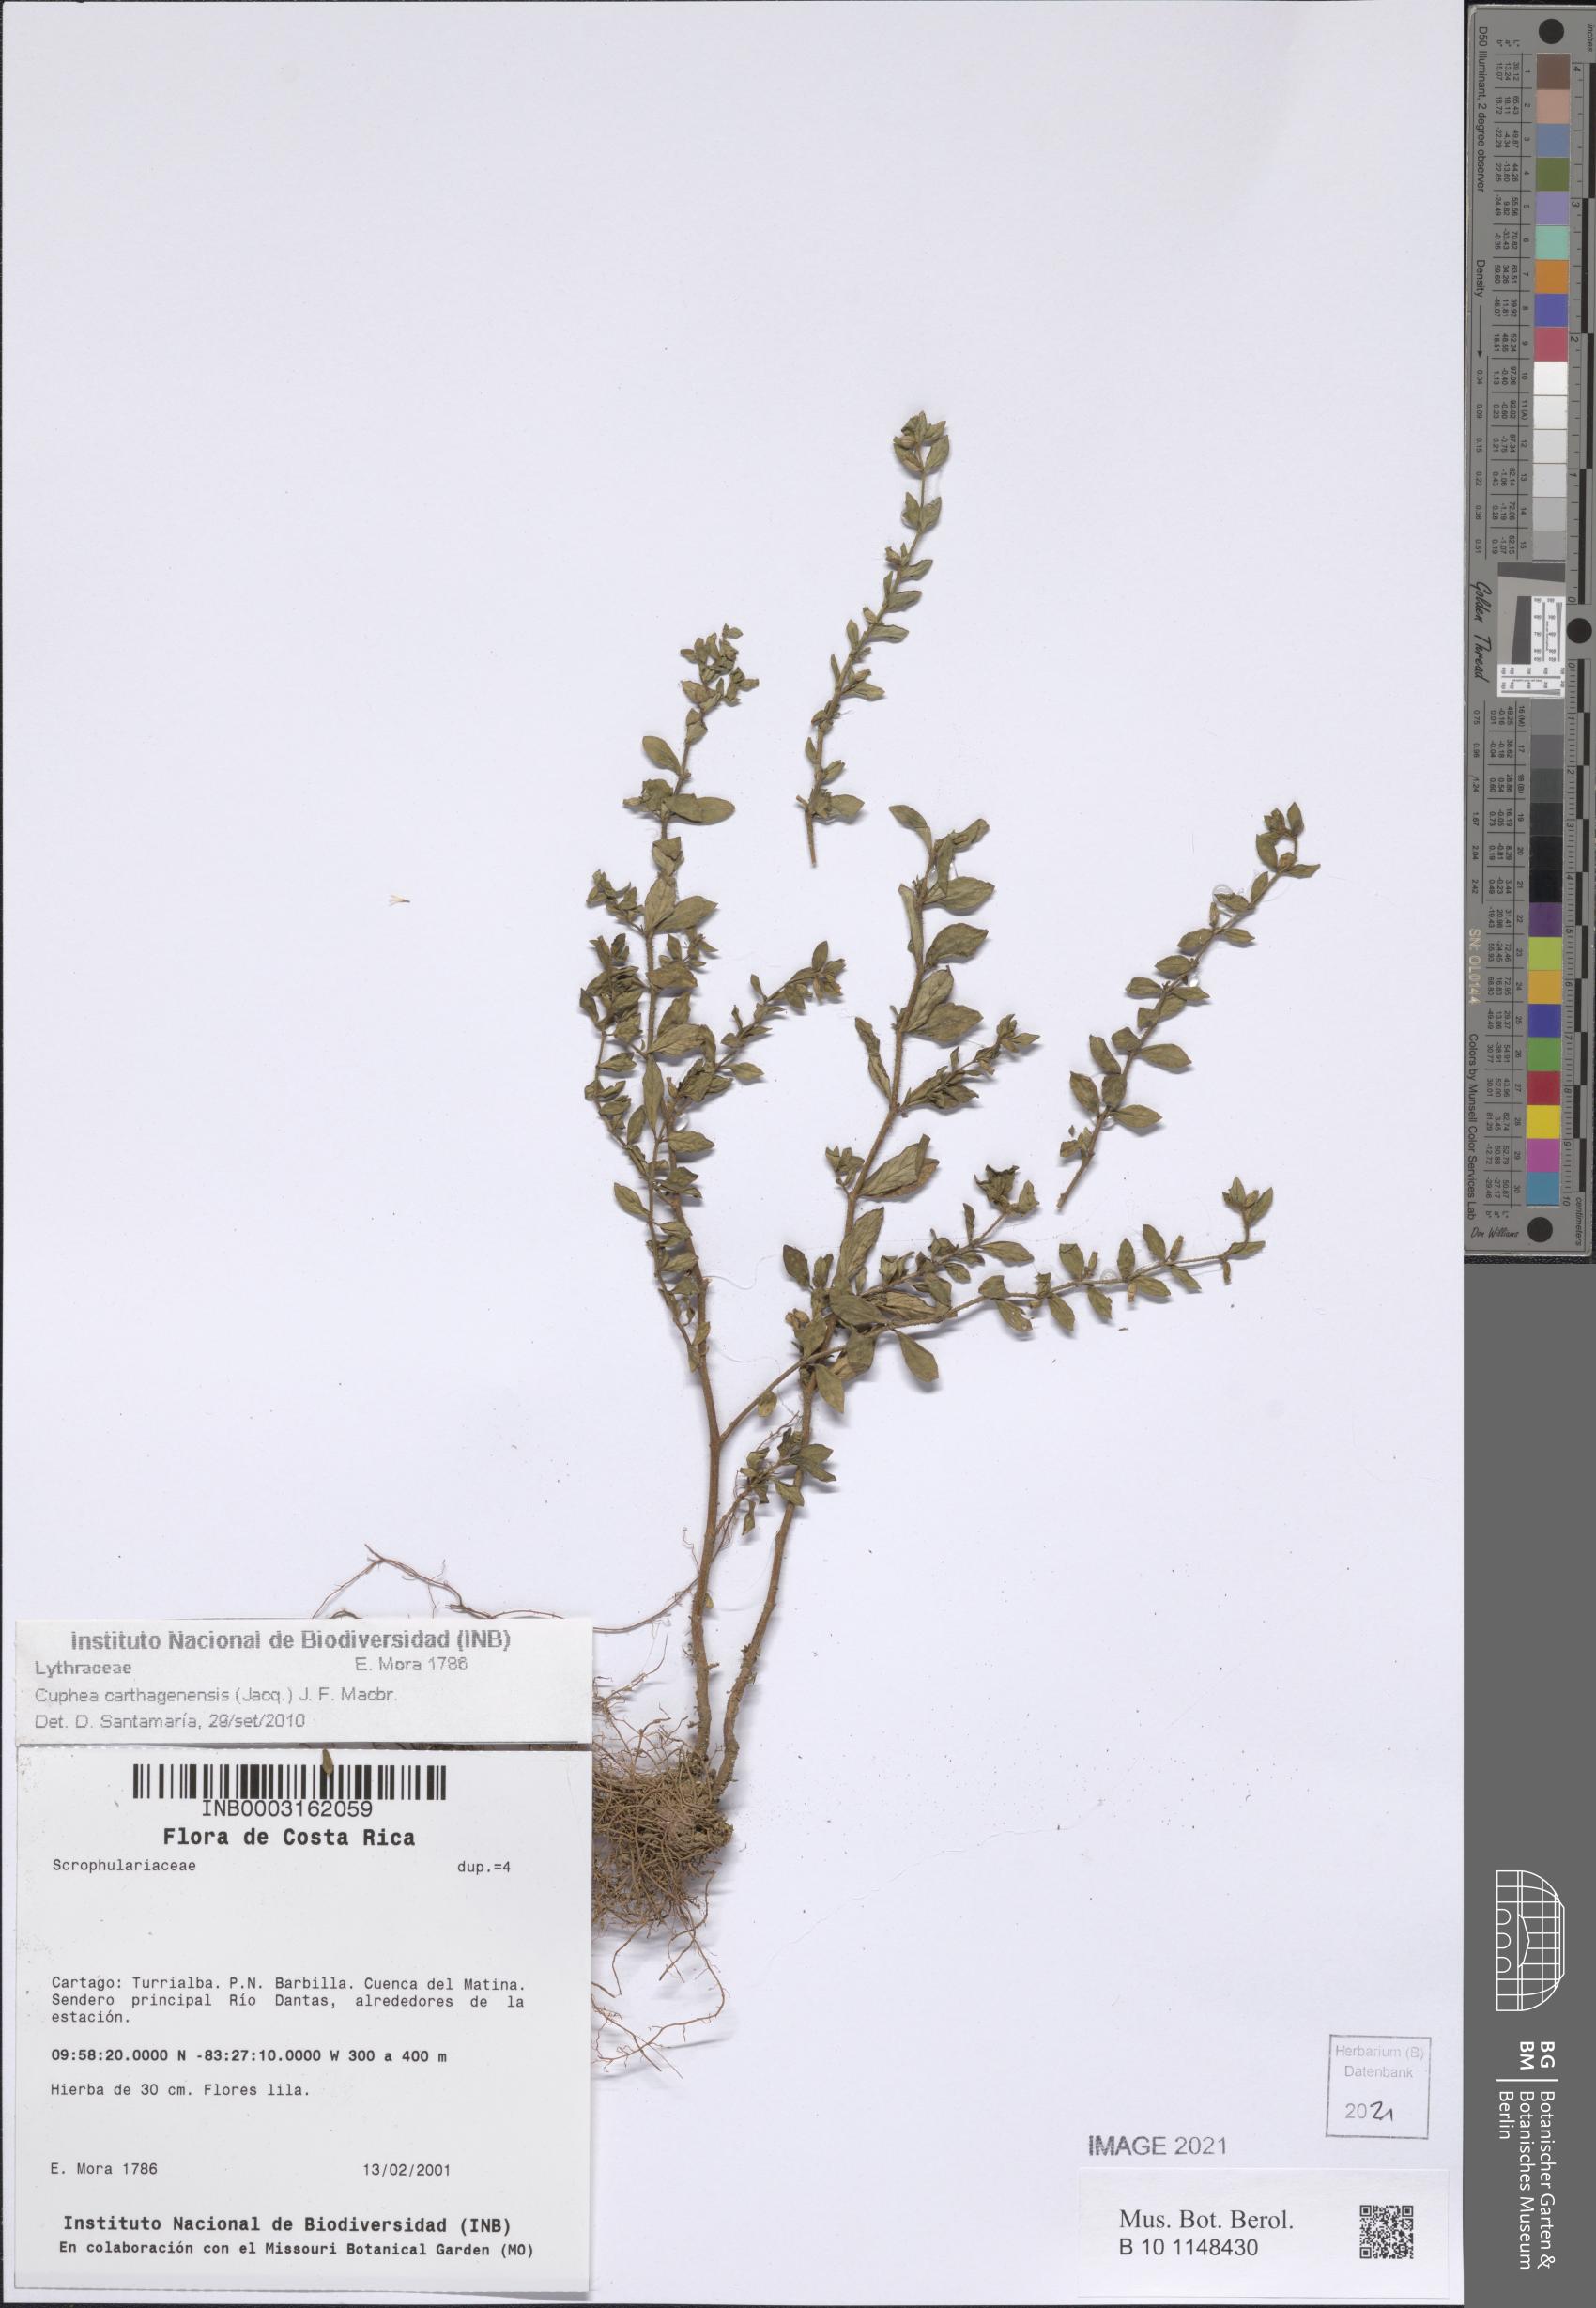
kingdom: Plantae
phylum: Tracheophyta
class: Magnoliopsida
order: Myrtales
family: Lythraceae
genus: Cuphea
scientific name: Cuphea carthagenensis
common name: Colombian waxweed
